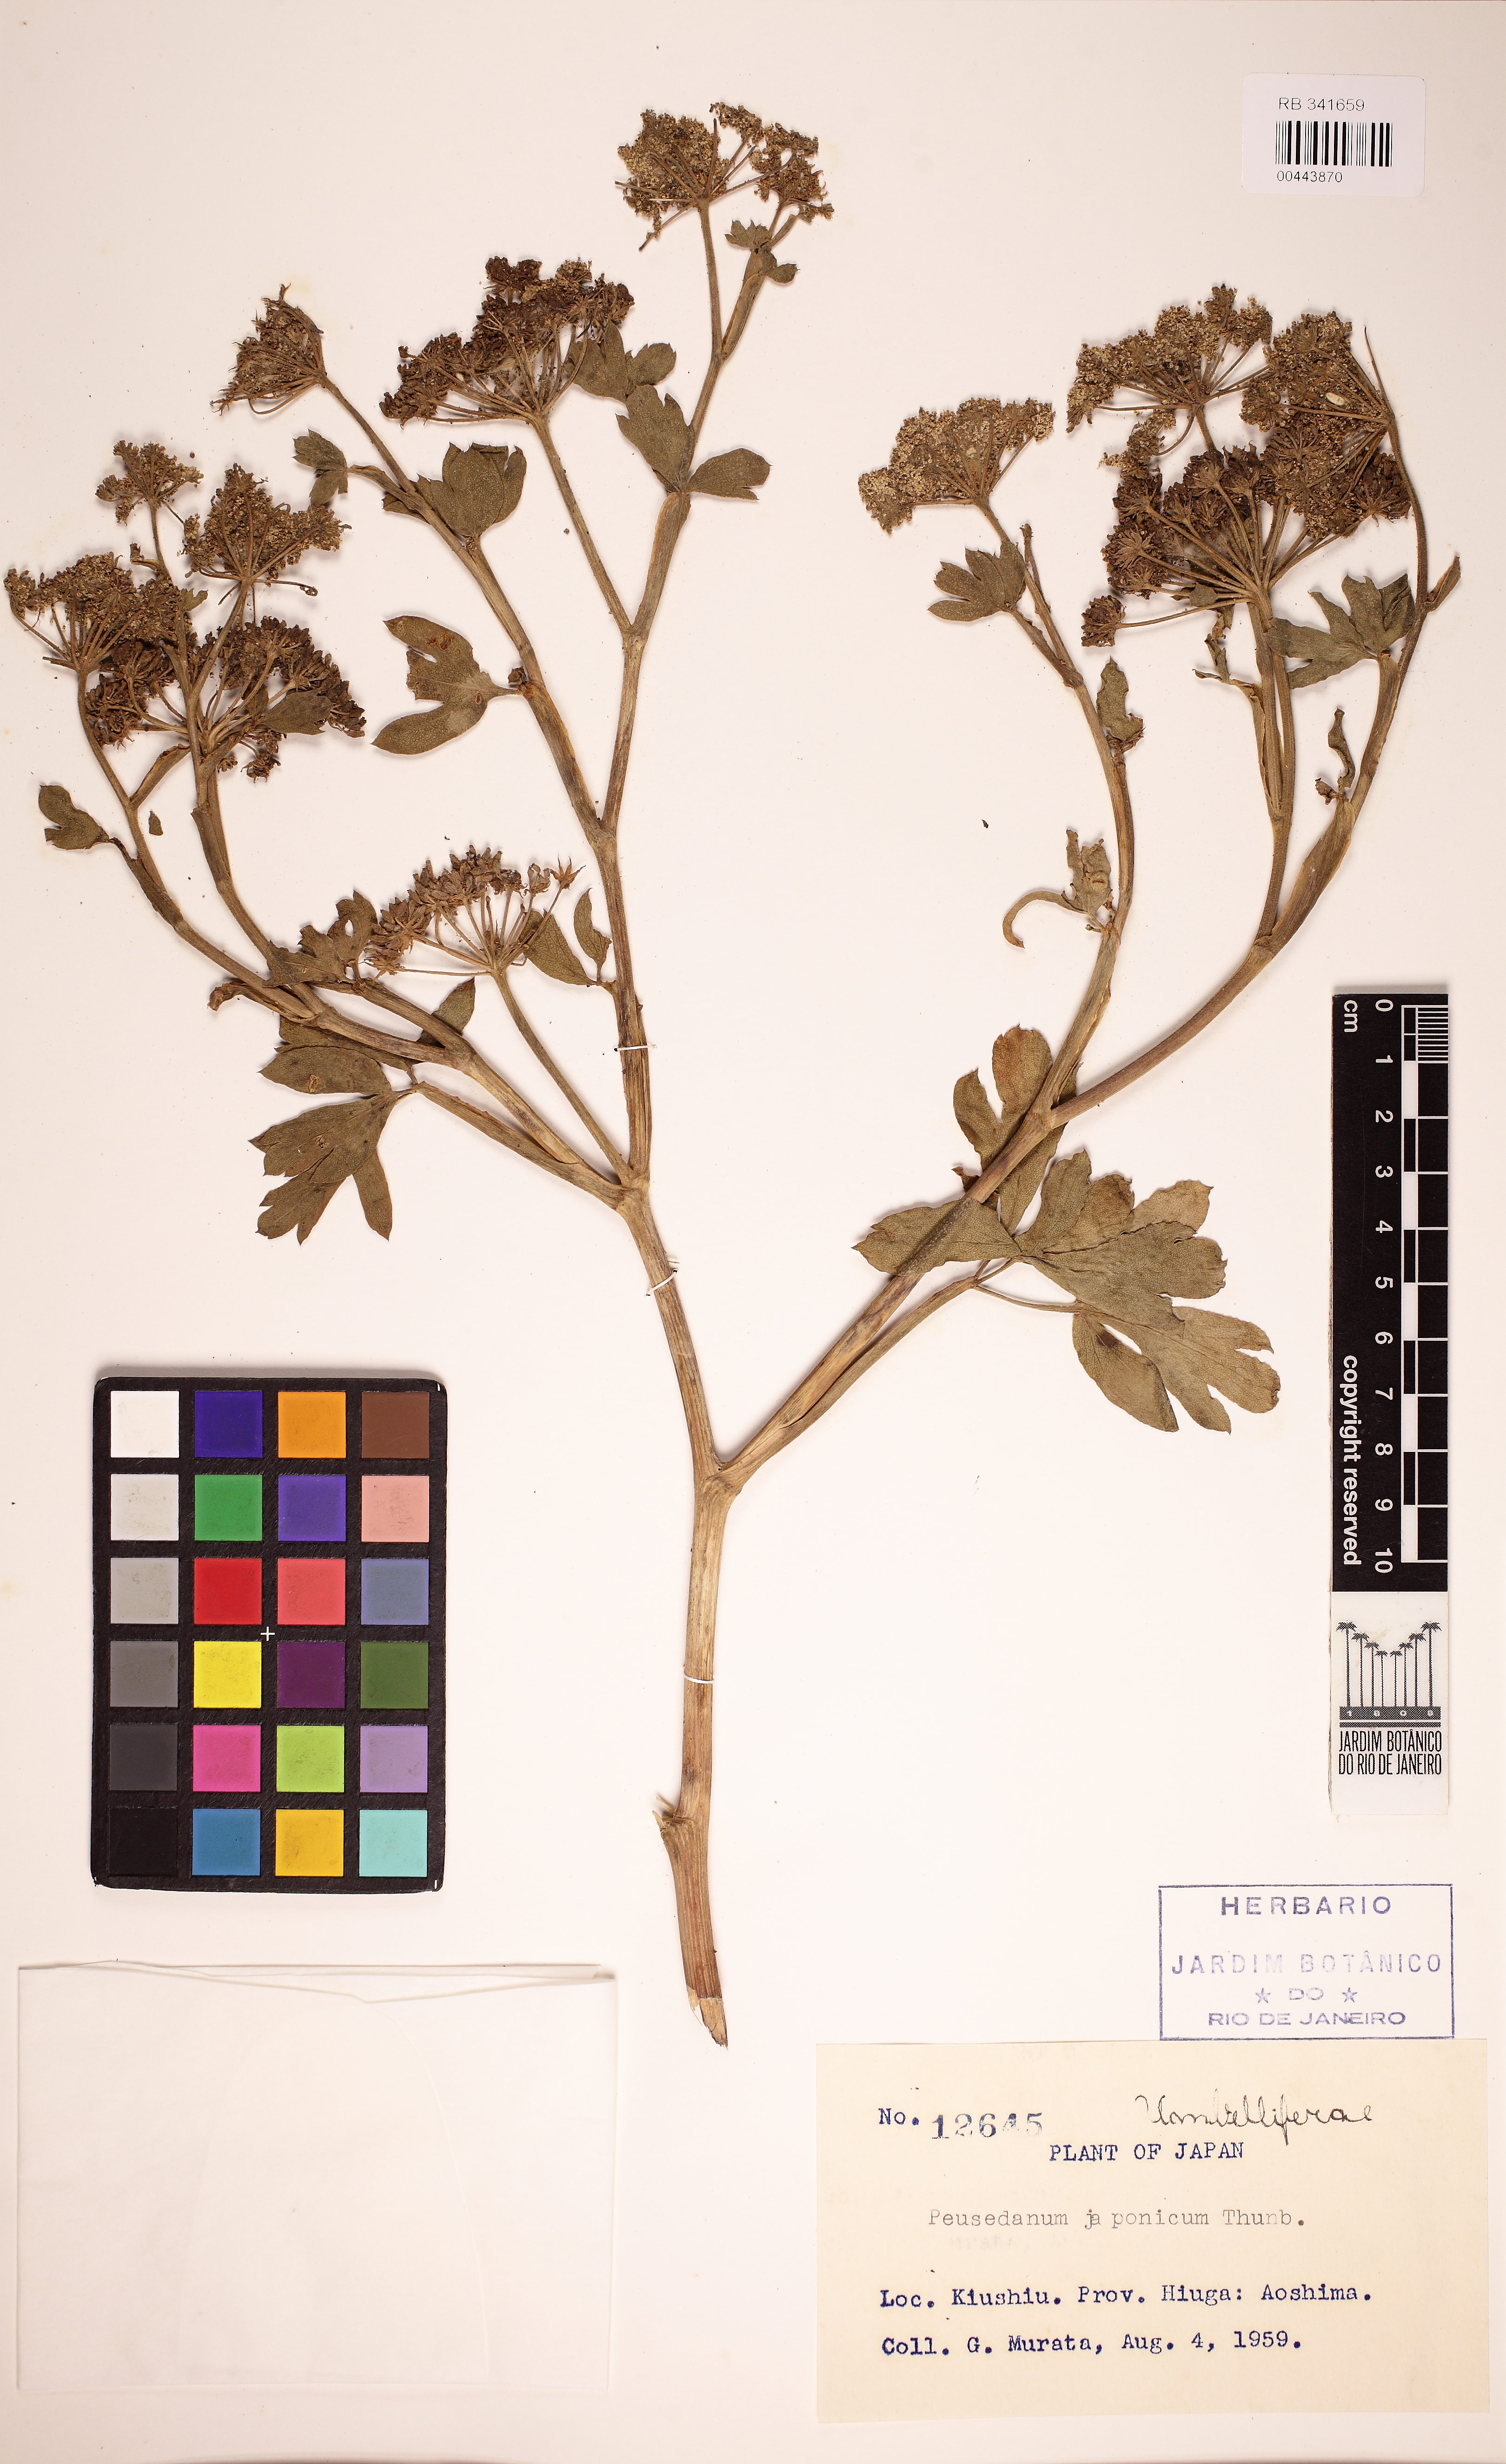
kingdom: Plantae
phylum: Tracheophyta
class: Magnoliopsida
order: Apiales
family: Araliaceae
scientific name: Araliaceae
